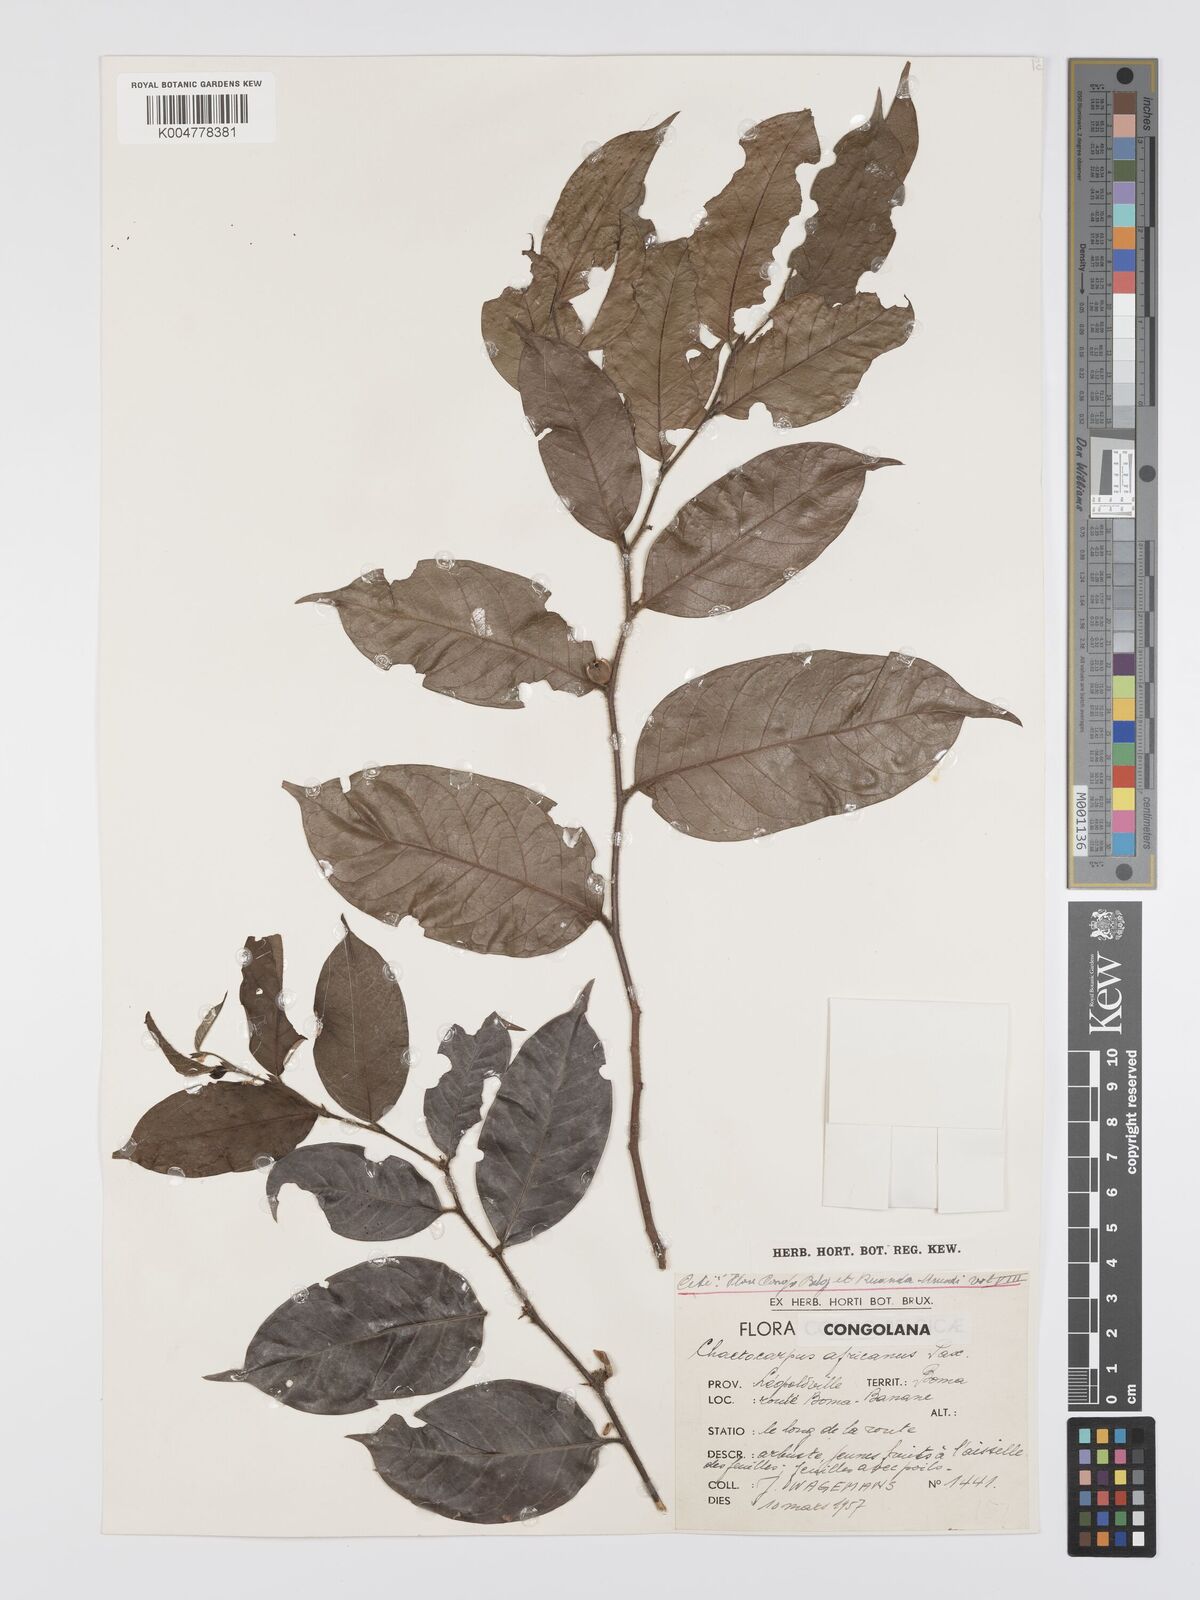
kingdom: Plantae
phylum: Tracheophyta
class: Magnoliopsida
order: Malpighiales
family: Peraceae
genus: Chaetocarpus
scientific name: Chaetocarpus africanus
